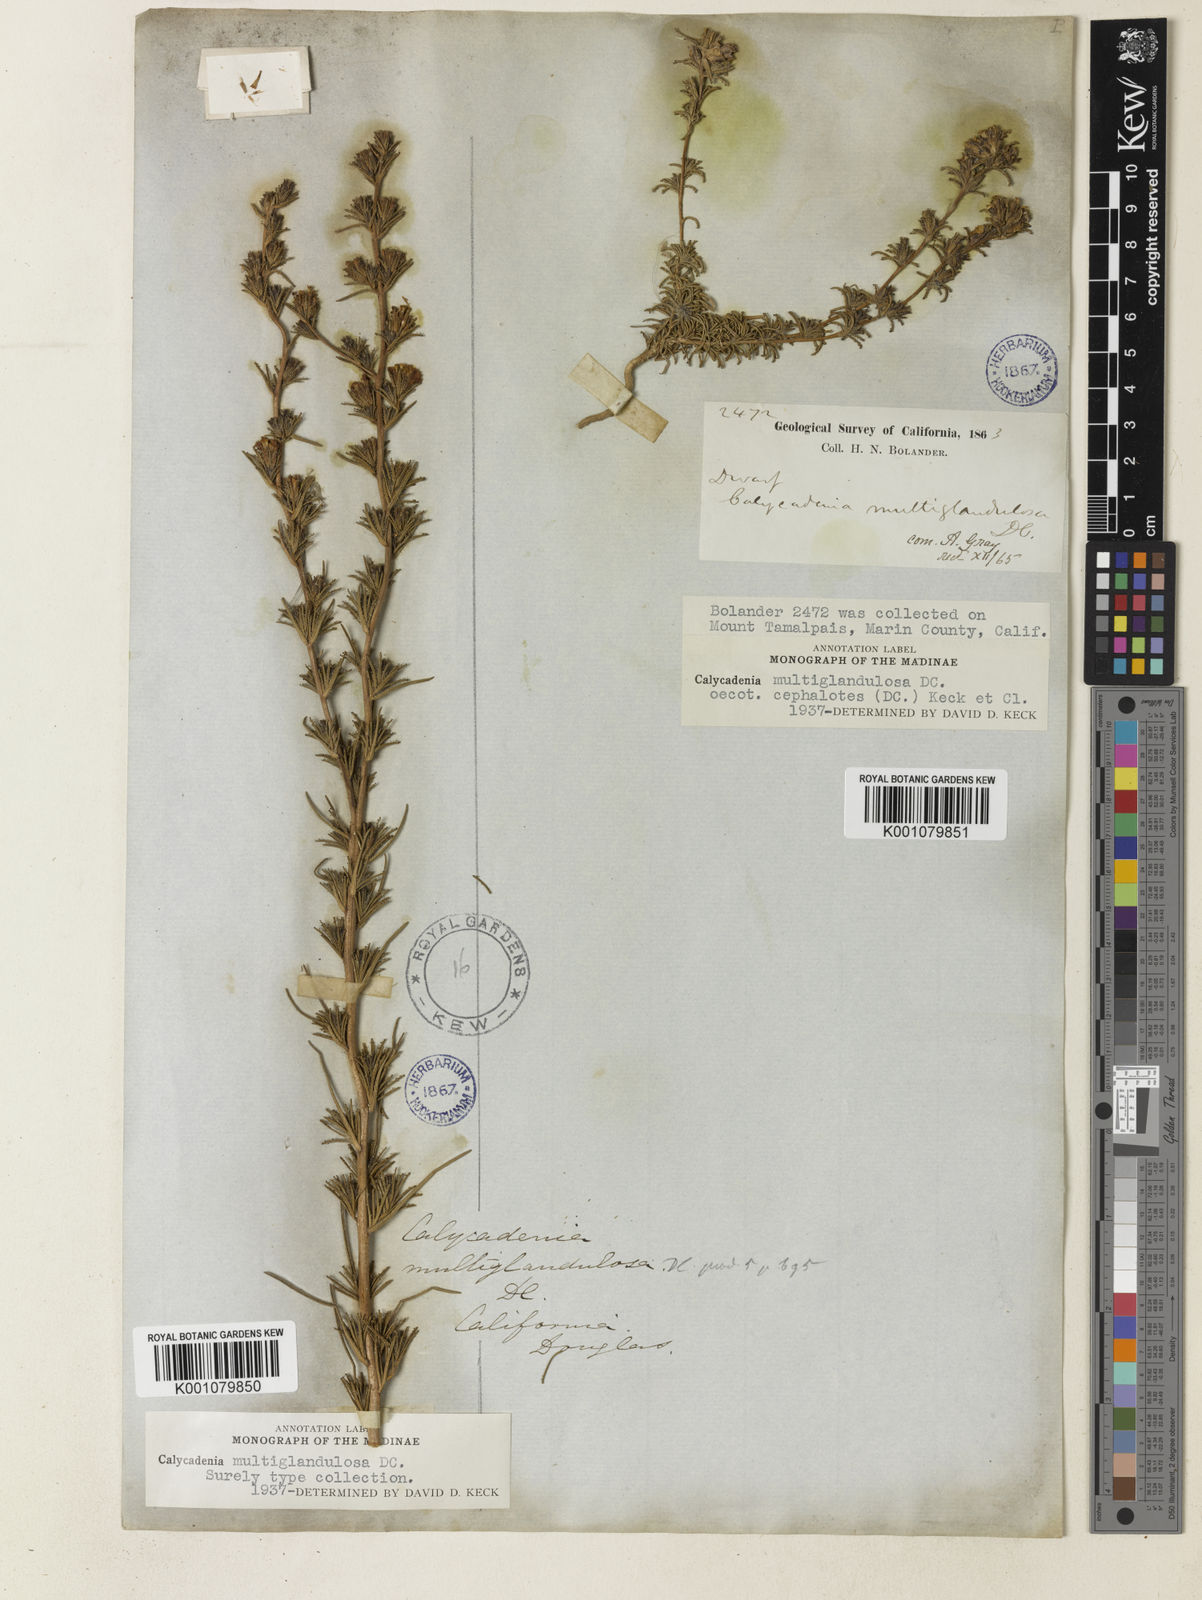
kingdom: Plantae
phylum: Tracheophyta
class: Magnoliopsida
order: Asterales
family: Asteraceae
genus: Calycadenia
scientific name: Calycadenia multiglandulosa
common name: Sticky calycadenia
